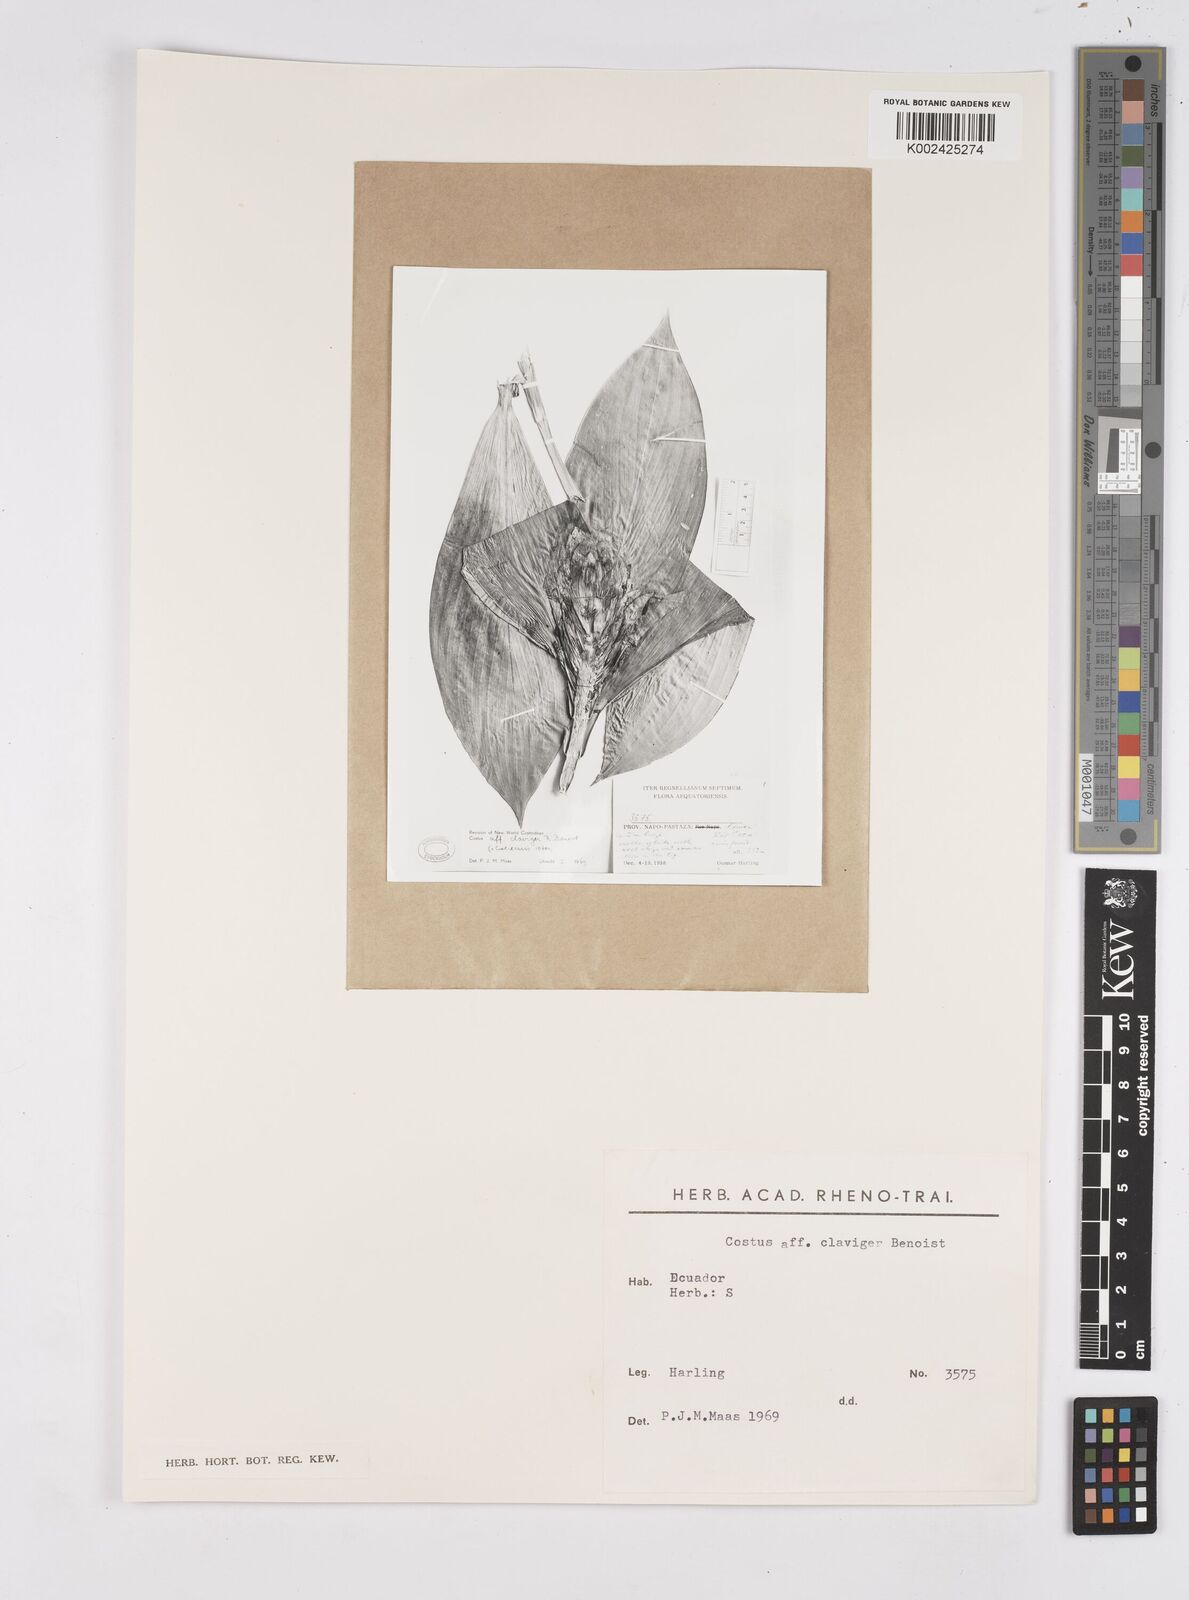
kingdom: Plantae
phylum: Tracheophyta
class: Liliopsida
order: Zingiberales
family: Costaceae
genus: Costus
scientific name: Costus claviger
